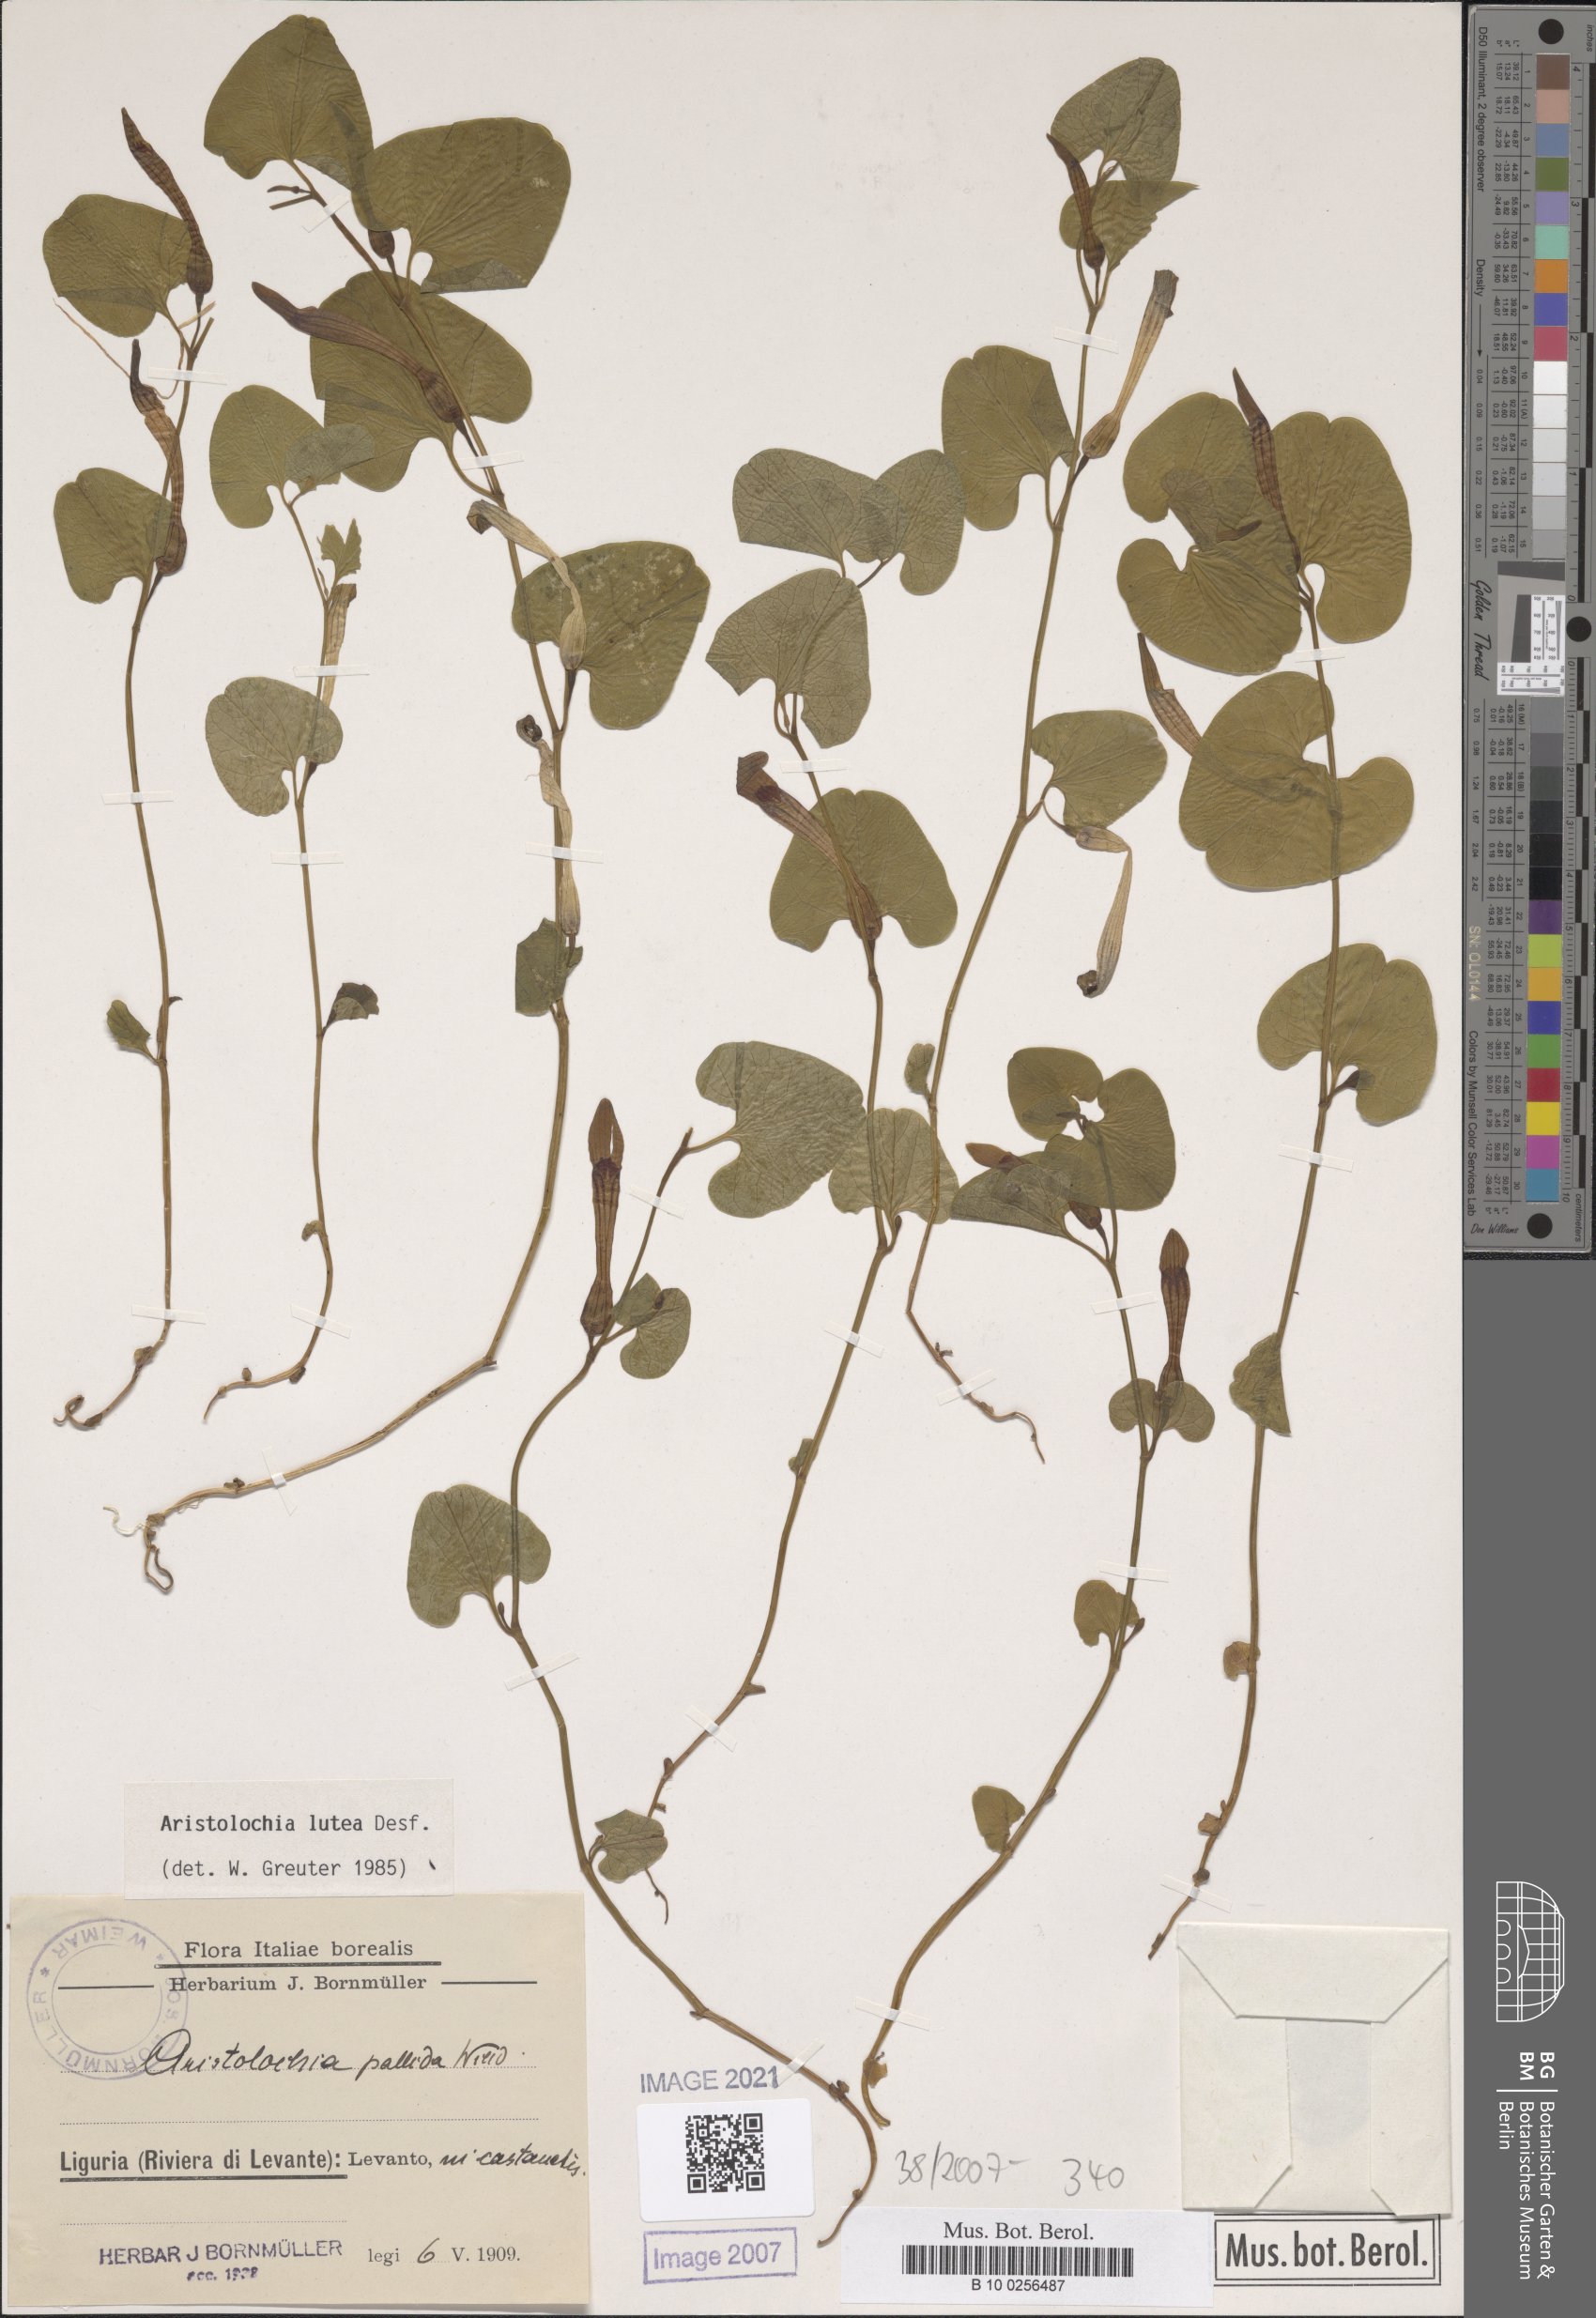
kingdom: Plantae
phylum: Tracheophyta
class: Magnoliopsida
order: Piperales
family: Aristolochiaceae
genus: Aristolochia
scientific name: Aristolochia lutea
